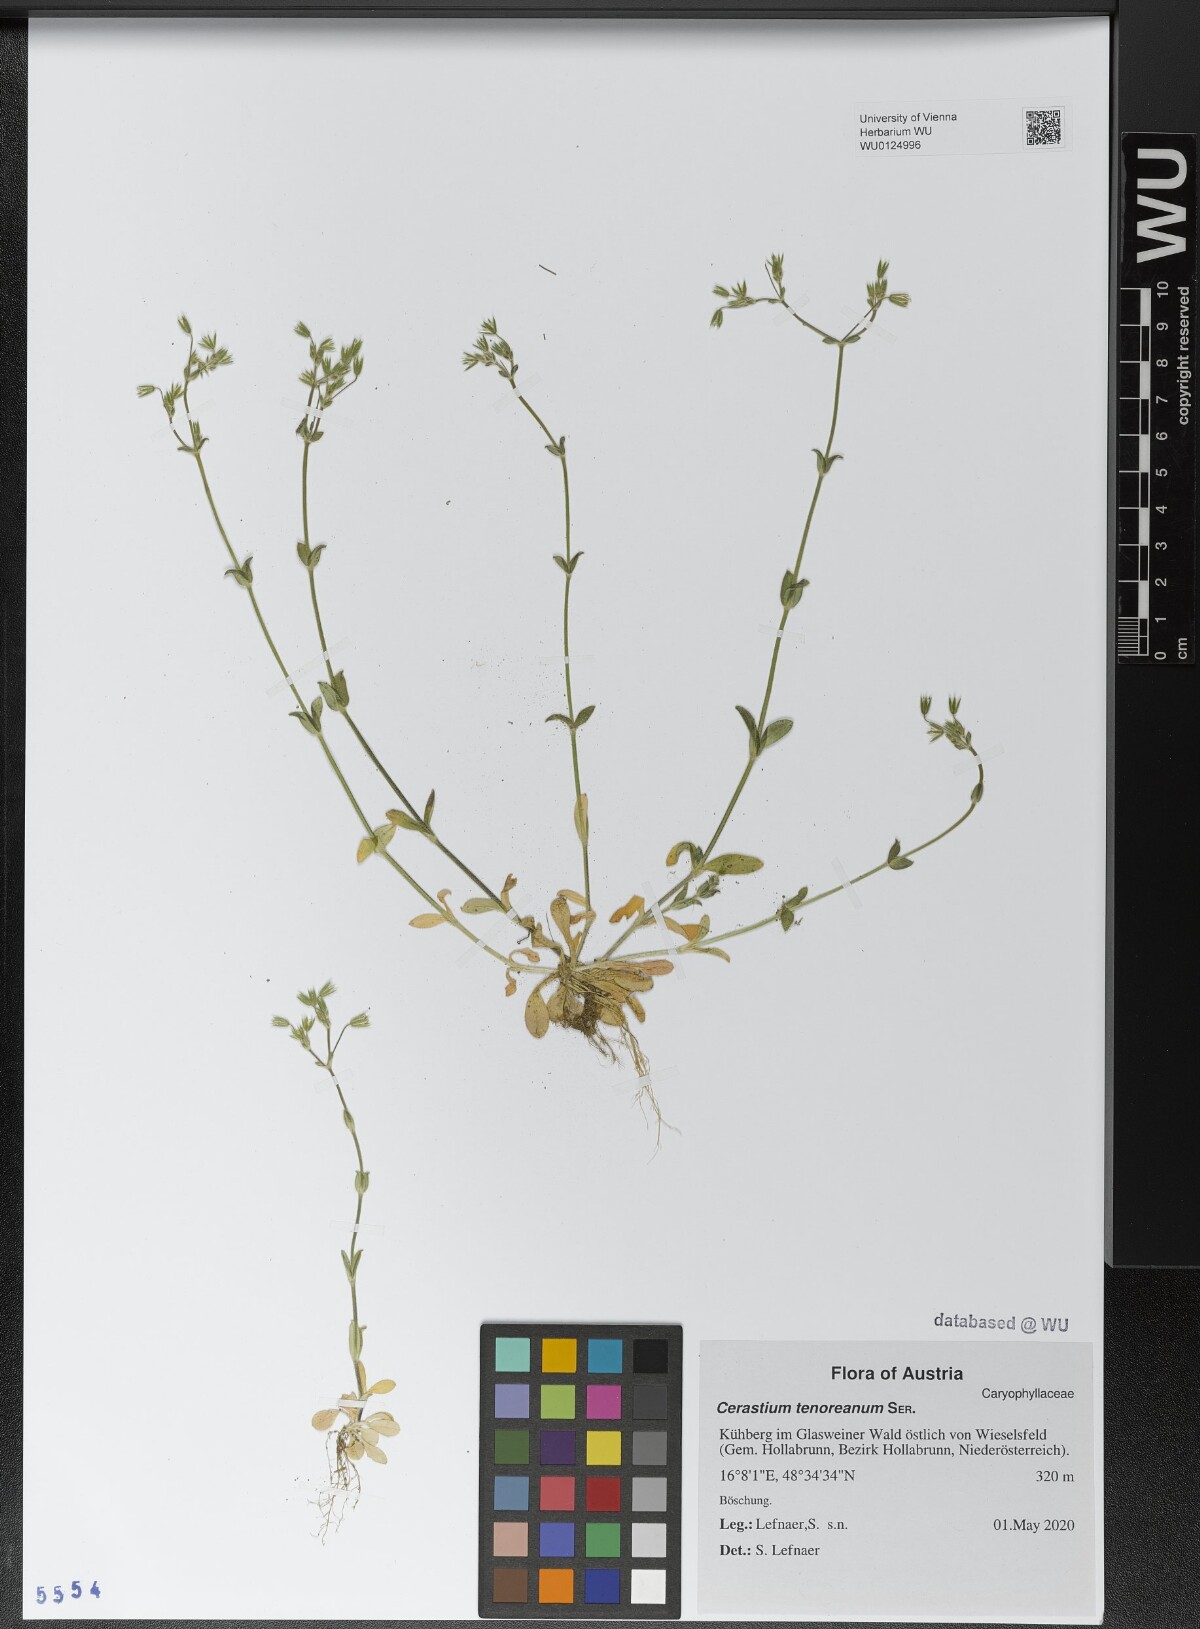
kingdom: Plantae
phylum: Tracheophyta
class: Magnoliopsida
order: Caryophyllales
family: Caryophyllaceae
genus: Cerastium
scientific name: Cerastium tenoreanum
